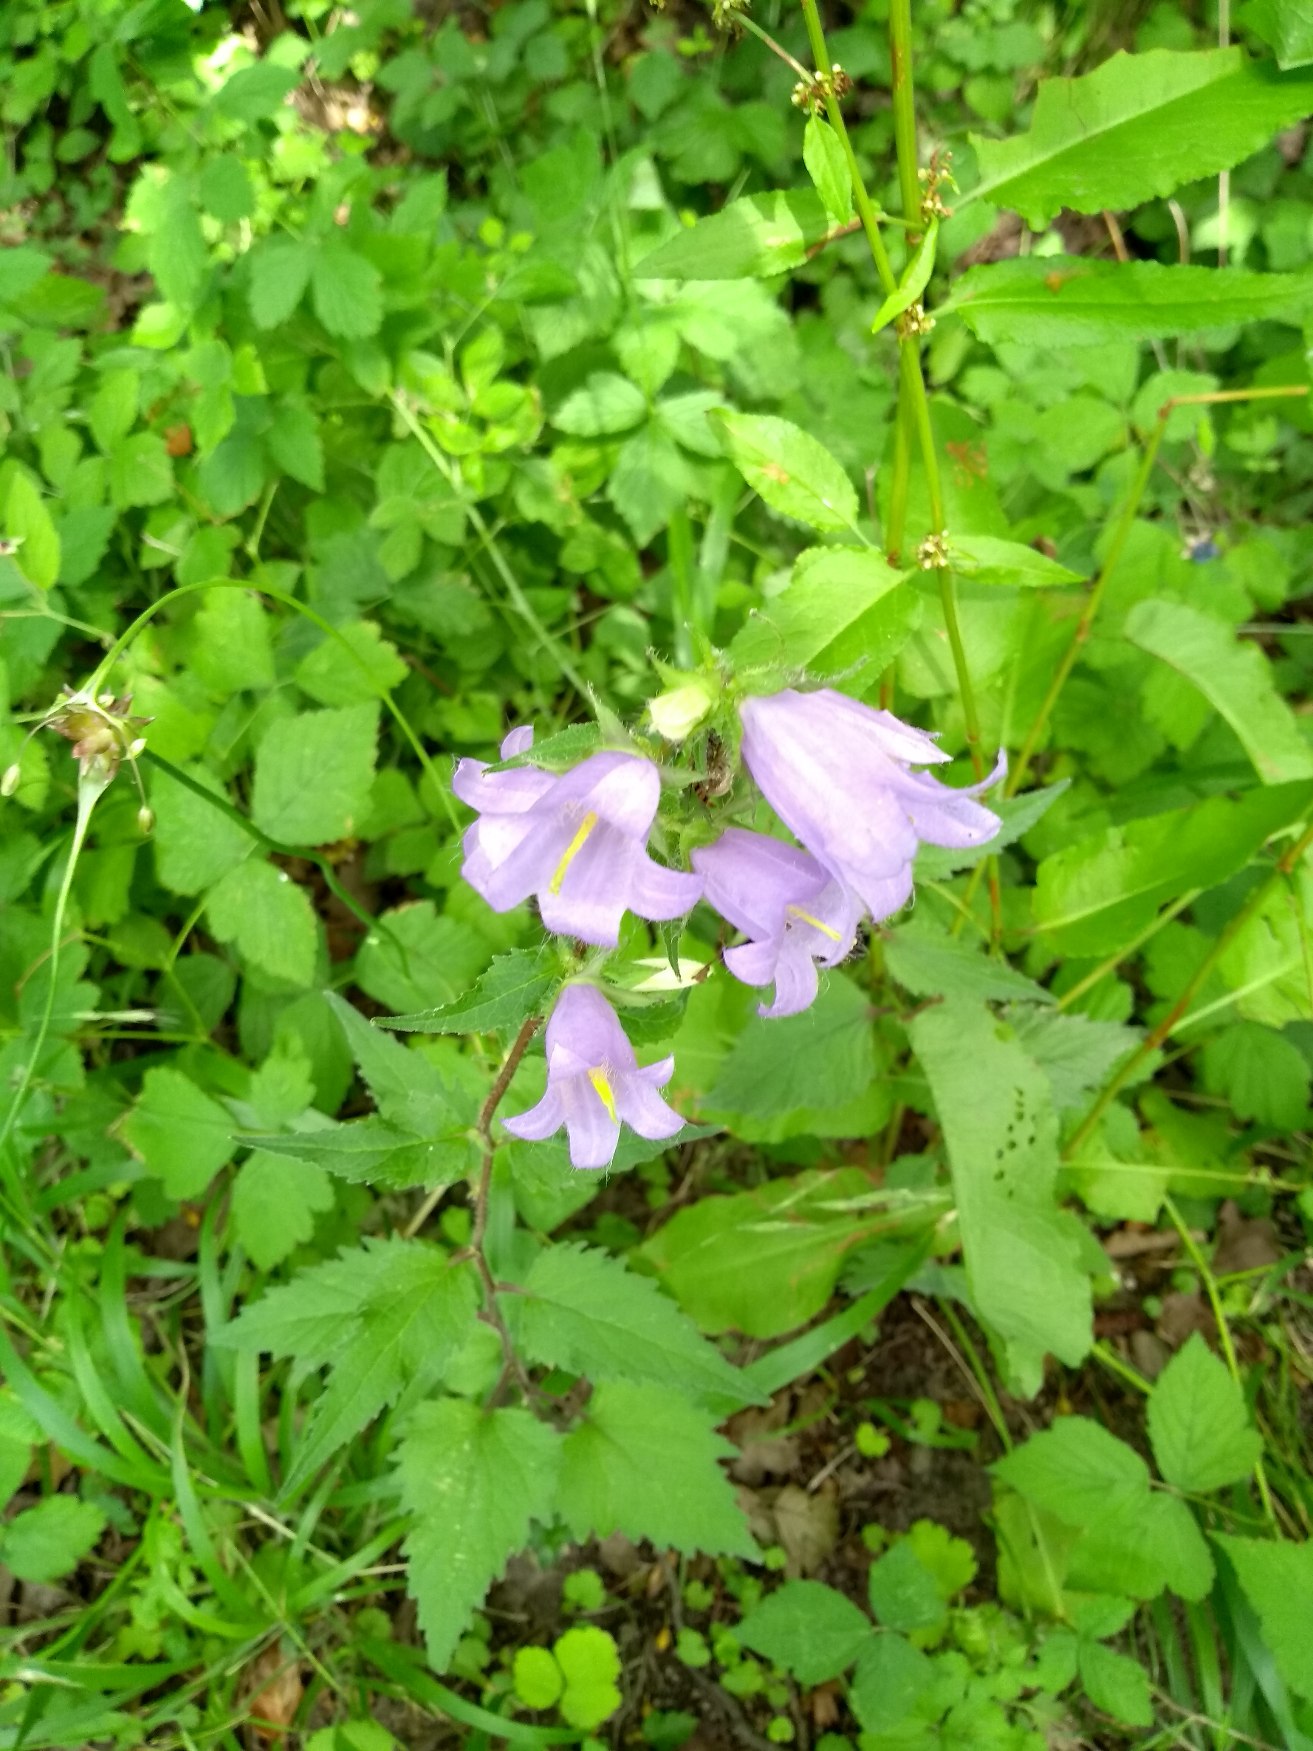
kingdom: Plantae
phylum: Tracheophyta
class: Magnoliopsida
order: Asterales
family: Campanulaceae
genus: Campanula
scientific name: Campanula trachelium
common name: Nælde-klokke
